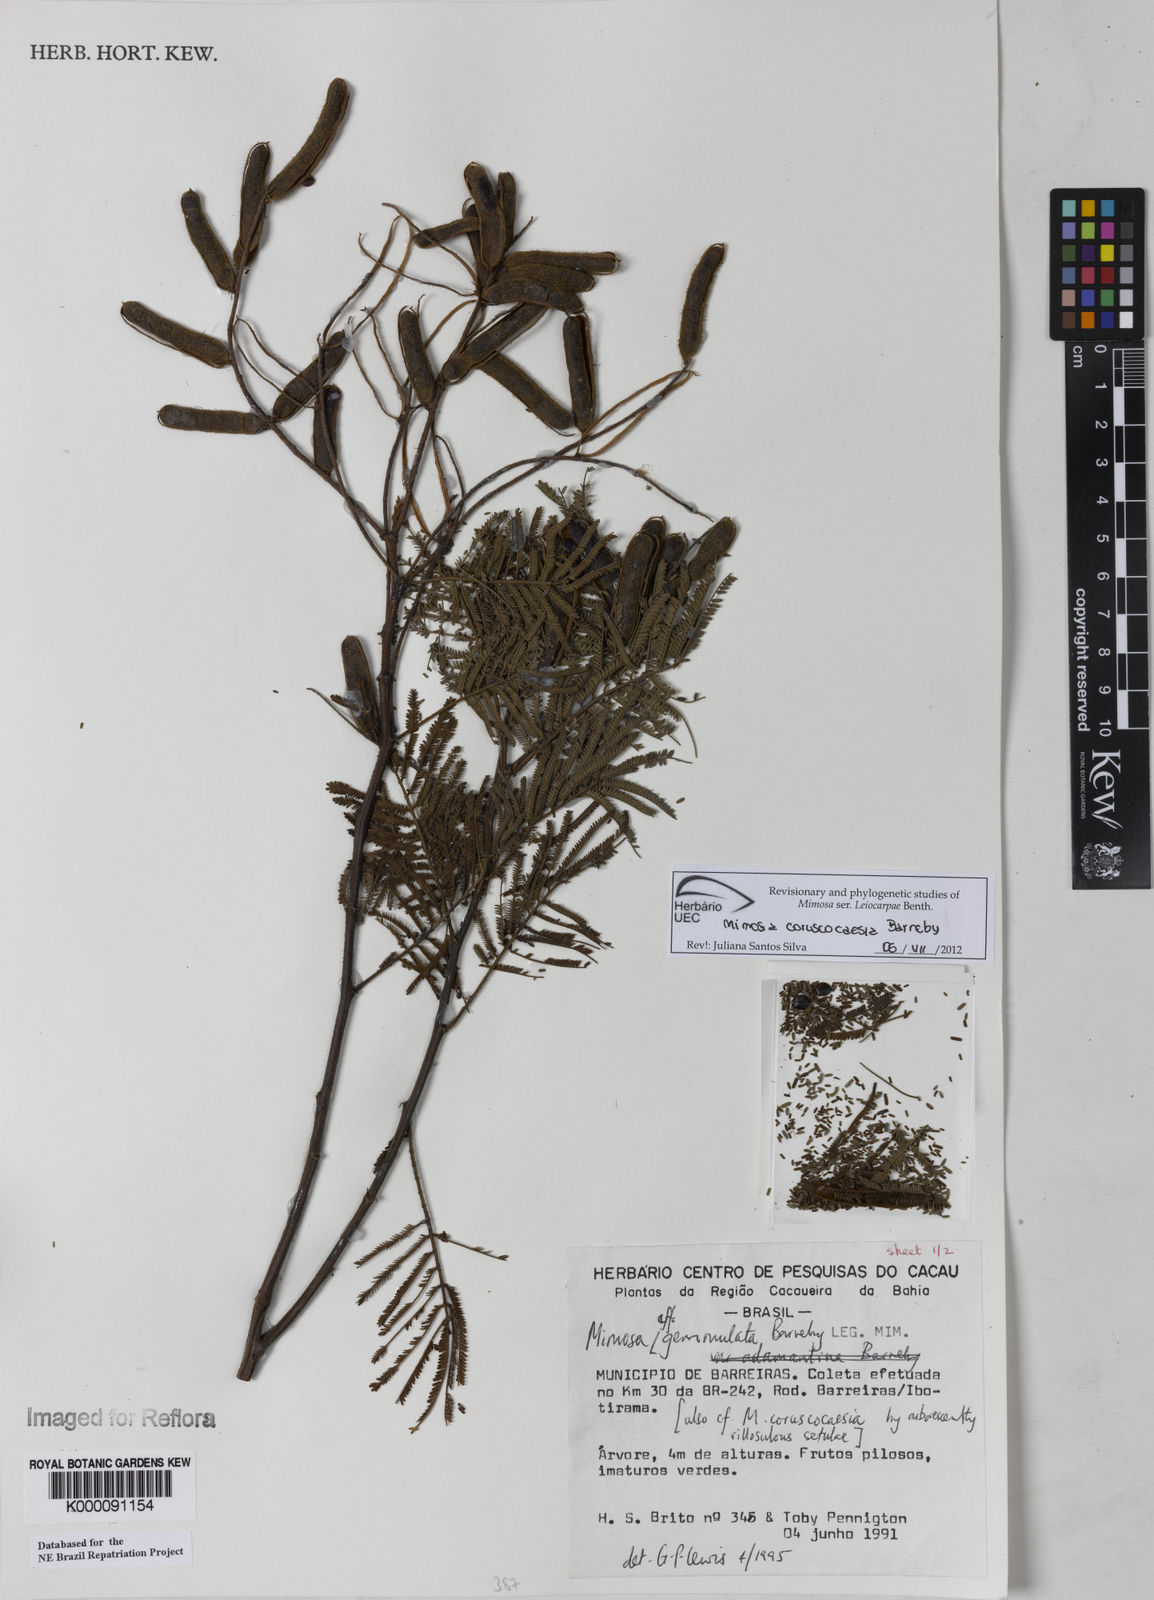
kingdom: Plantae
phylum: Tracheophyta
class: Magnoliopsida
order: Fabales
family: Fabaceae
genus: Mimosa
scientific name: Mimosa gemmulata
